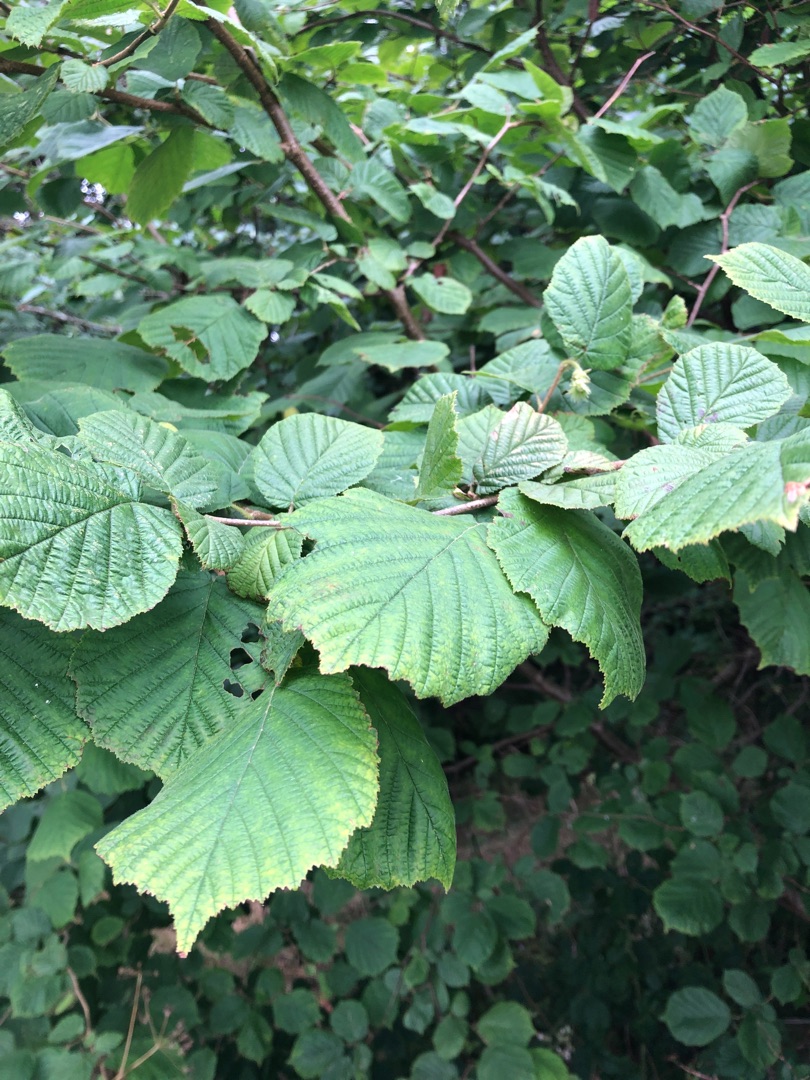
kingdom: Plantae
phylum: Tracheophyta
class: Magnoliopsida
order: Fagales
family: Betulaceae
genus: Corylus
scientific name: Corylus avellana
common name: Hassel
